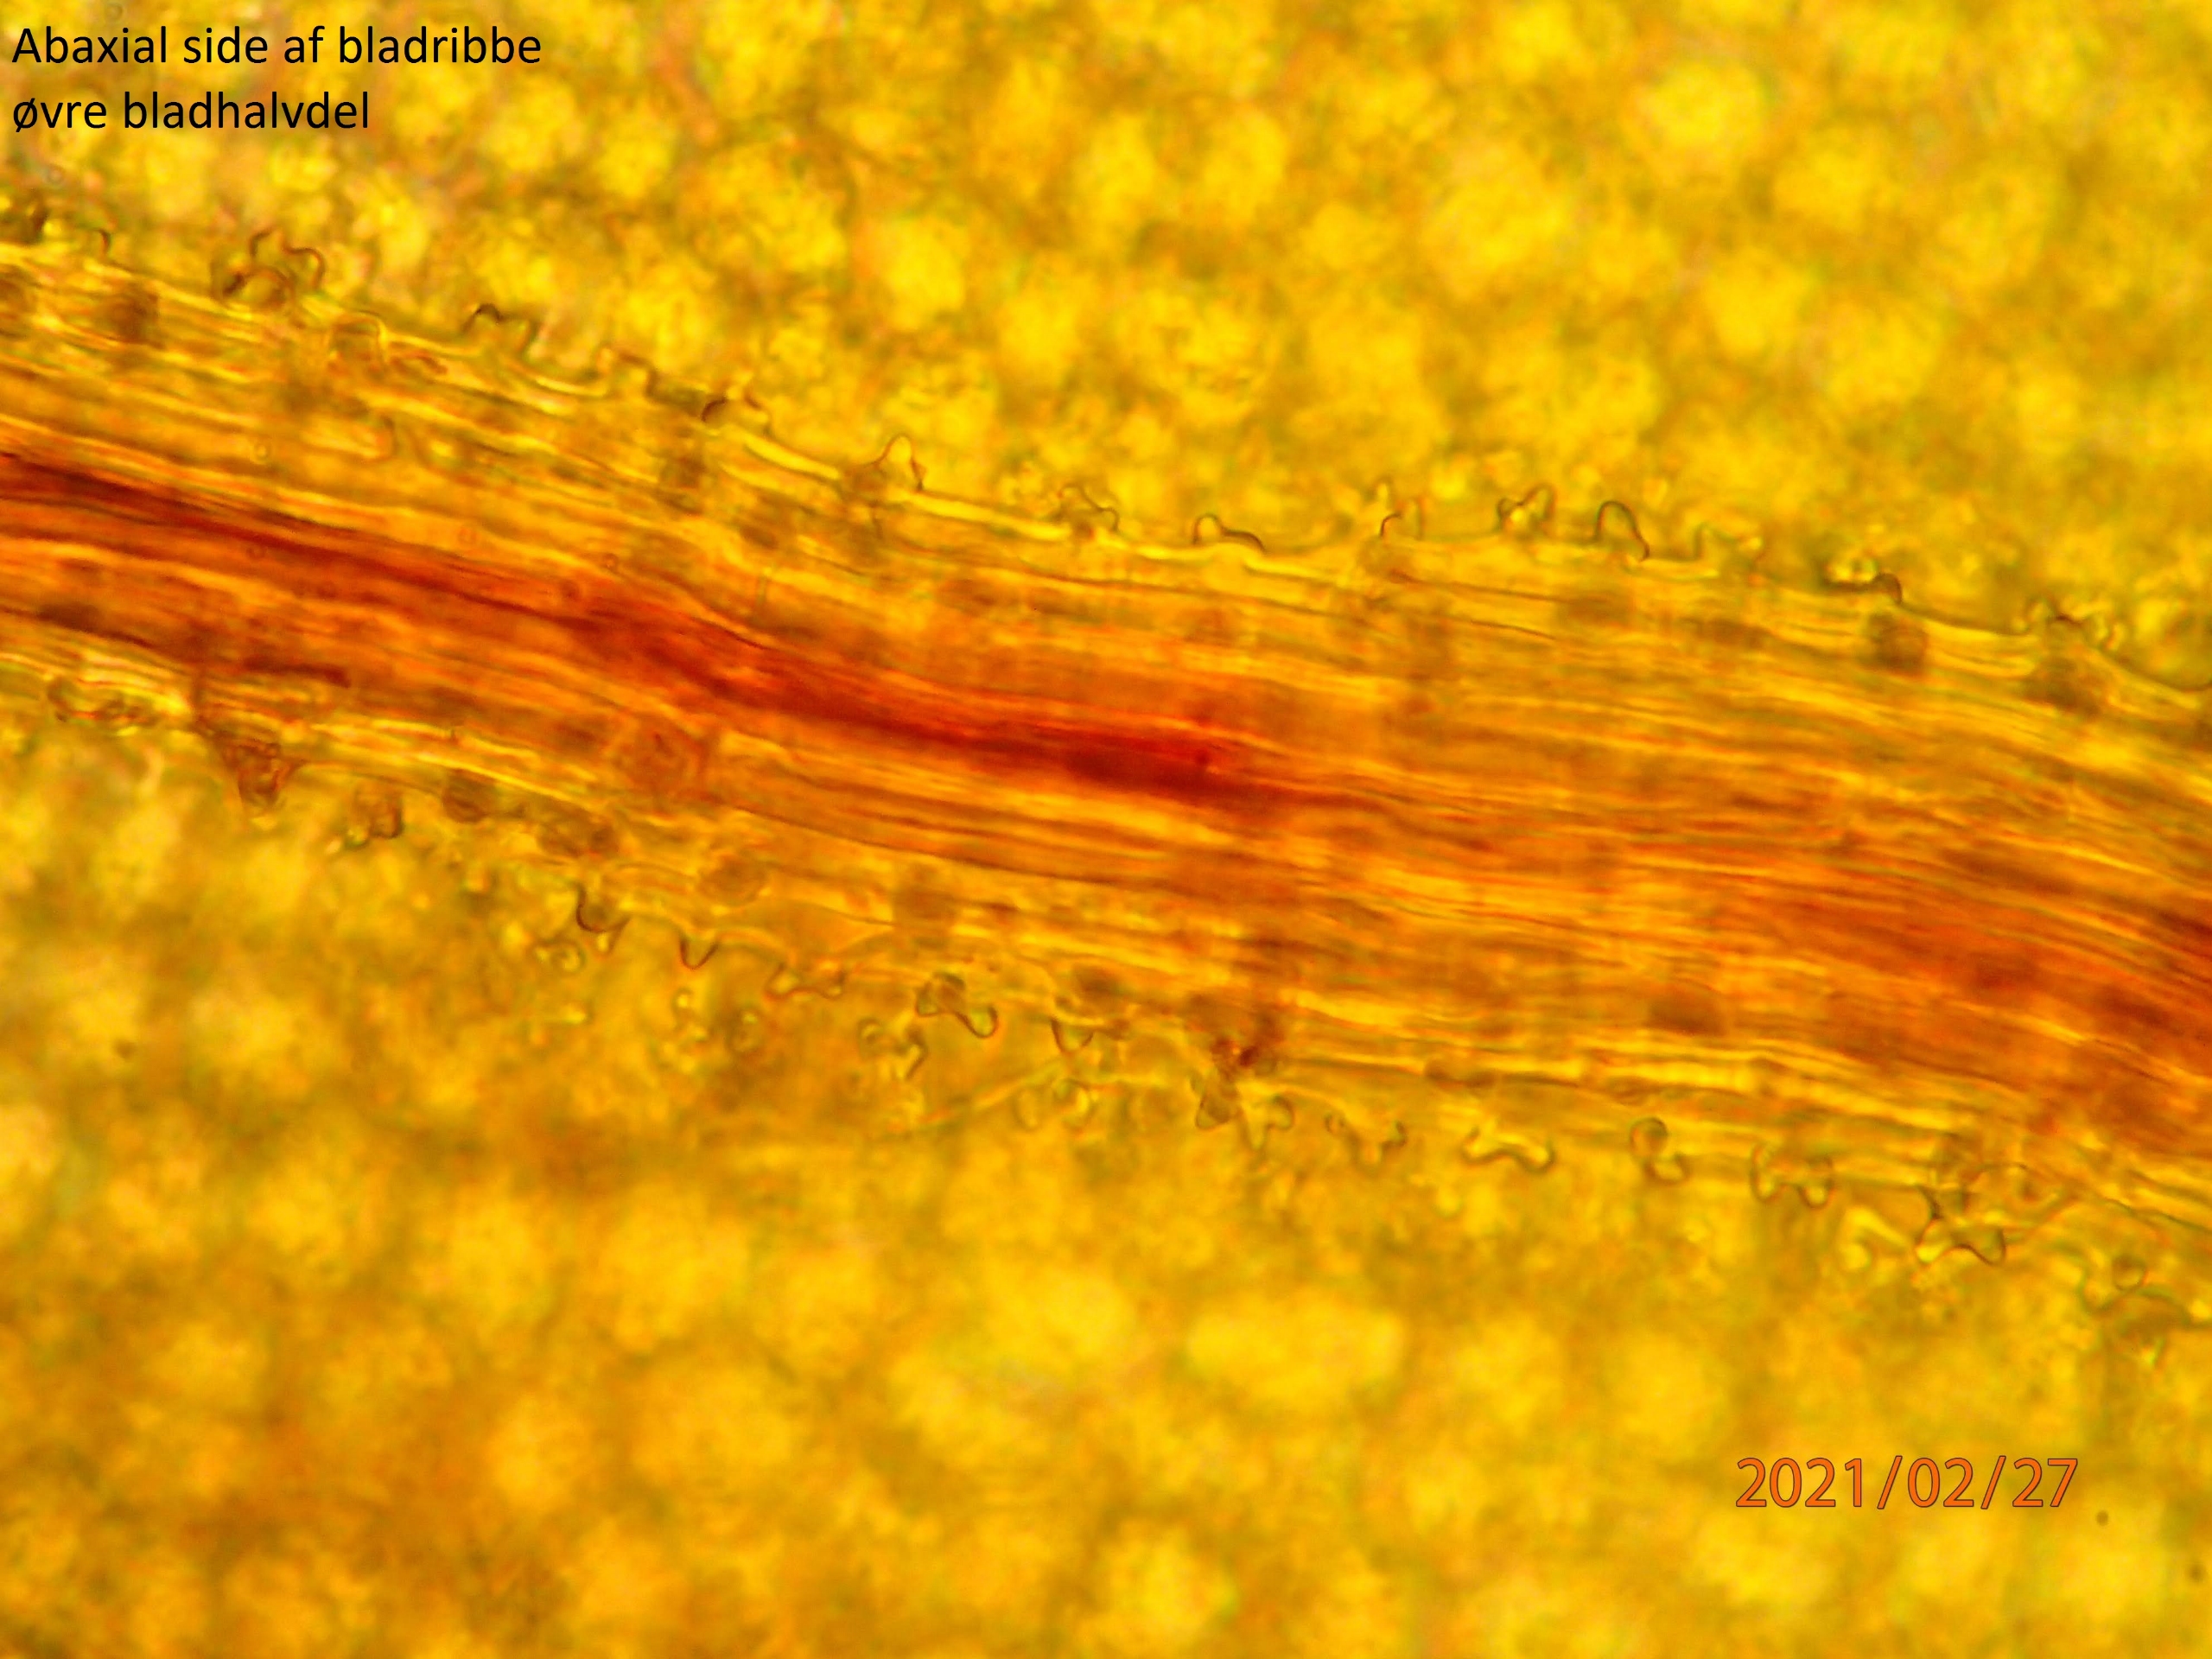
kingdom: Plantae
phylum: Bryophyta
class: Bryopsida
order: Encalyptales
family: Encalyptaceae
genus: Encalypta
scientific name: Encalypta vulgaris
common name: Almindelig klokkehætte
